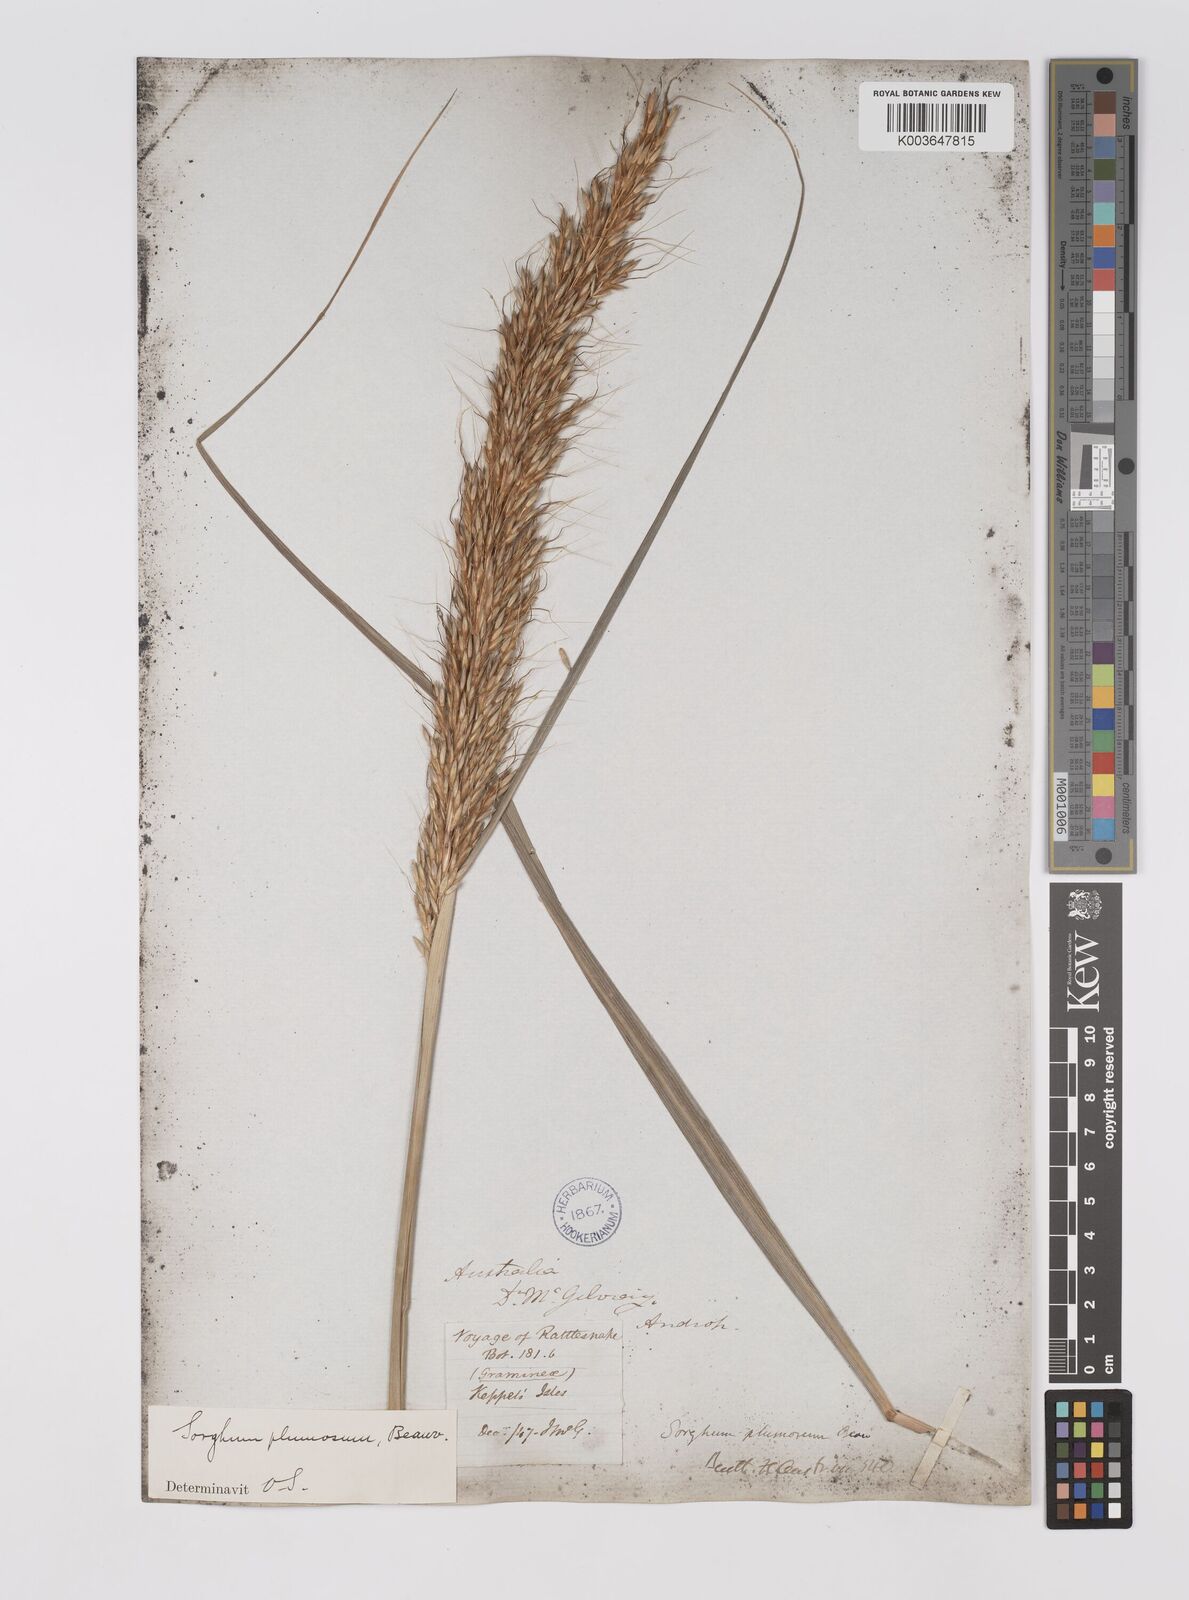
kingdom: Plantae
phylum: Tracheophyta
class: Liliopsida
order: Poales
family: Poaceae
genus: Sarga
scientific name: Sarga plumosa
